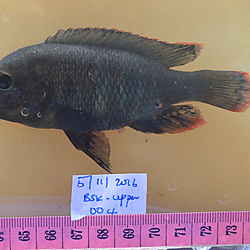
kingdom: Animalia
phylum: Chordata
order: Perciformes
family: Cichlidae
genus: Haplochromis
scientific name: Haplochromis greenwoodi
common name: Velvet black
